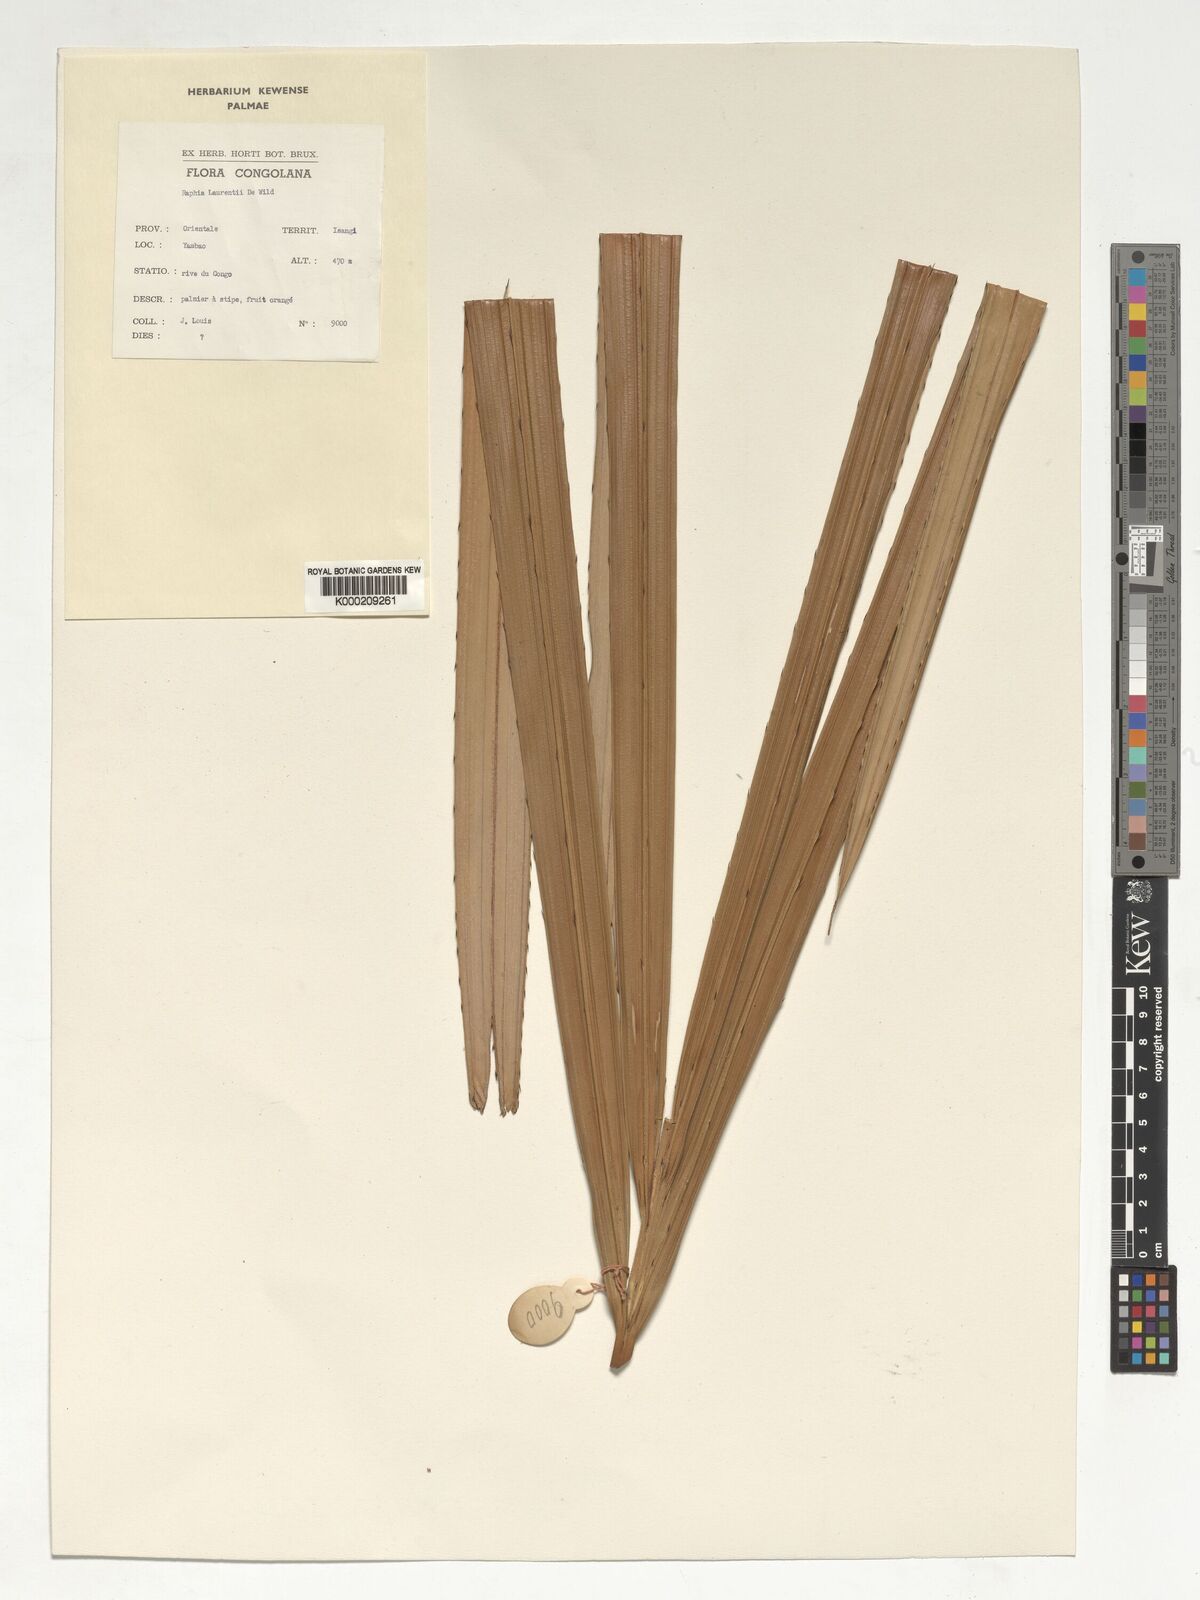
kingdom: Plantae
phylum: Tracheophyta
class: Liliopsida
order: Arecales
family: Arecaceae
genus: Raphia
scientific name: Raphia laurentii
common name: Raphia palm
